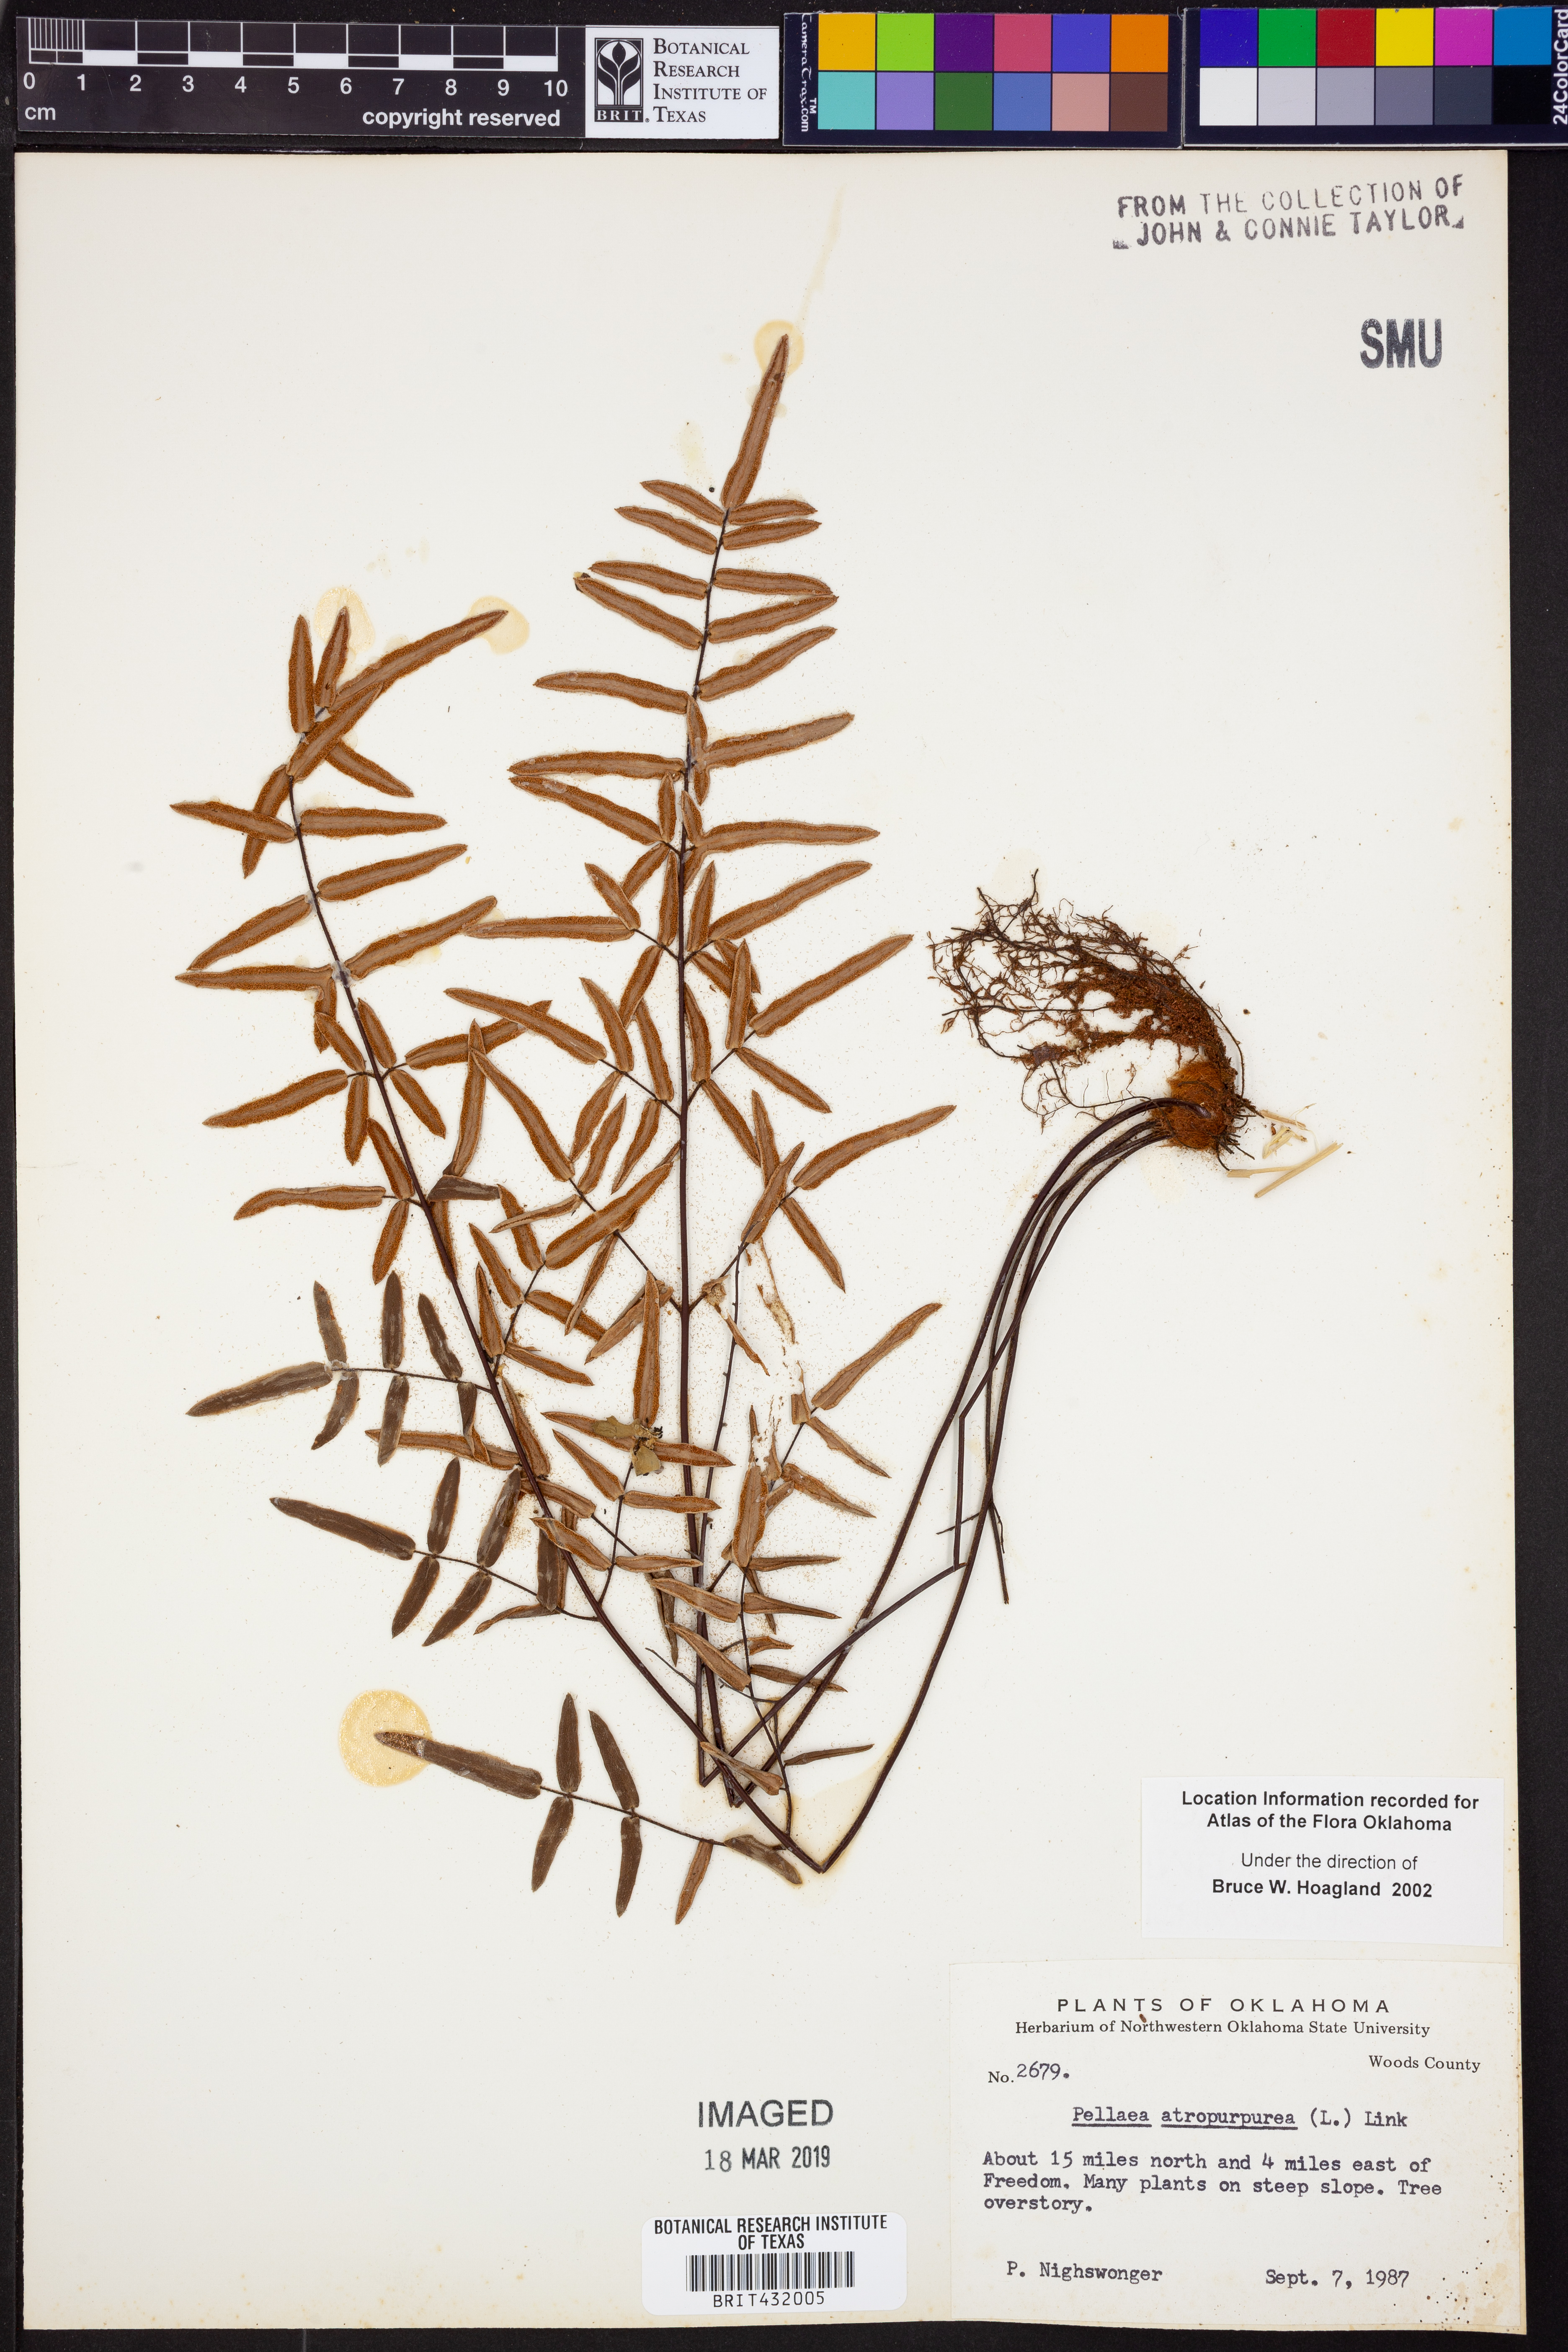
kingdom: Plantae
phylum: Tracheophyta
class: Polypodiopsida
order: Polypodiales
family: Pteridaceae
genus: Pellaea
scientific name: Pellaea atropurpurea
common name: Hairy cliffbrake
